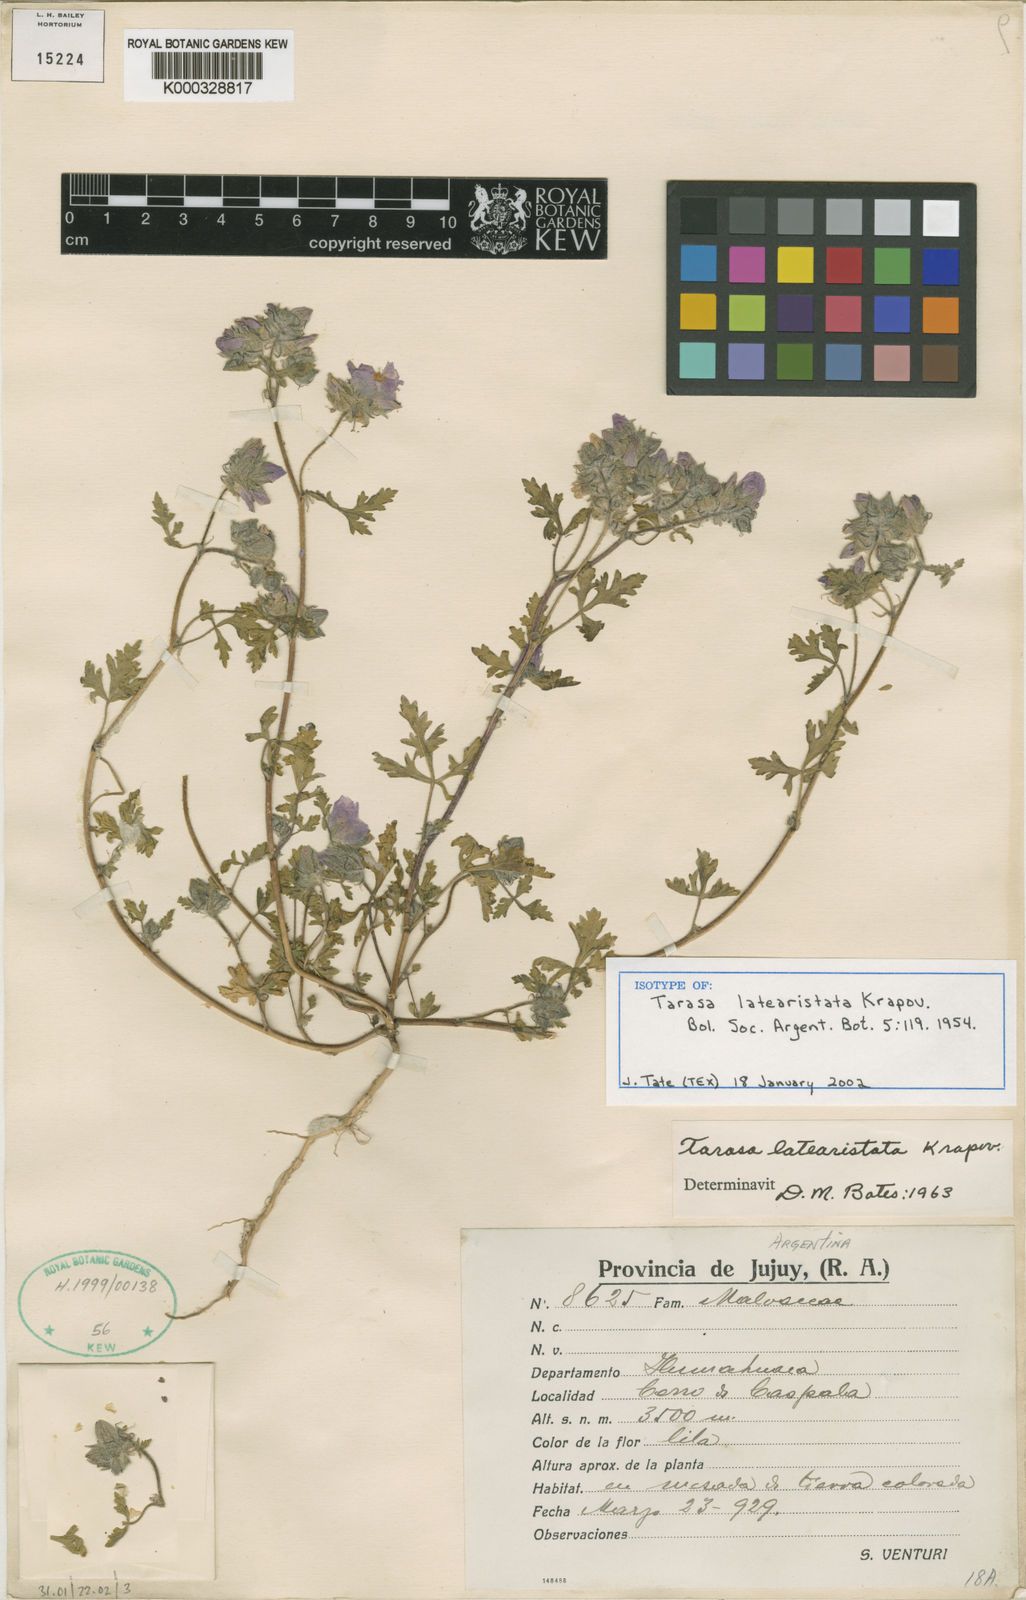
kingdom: Plantae
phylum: Tracheophyta
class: Magnoliopsida
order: Malvales
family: Malvaceae
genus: Tarasa
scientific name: Tarasa latearistata
